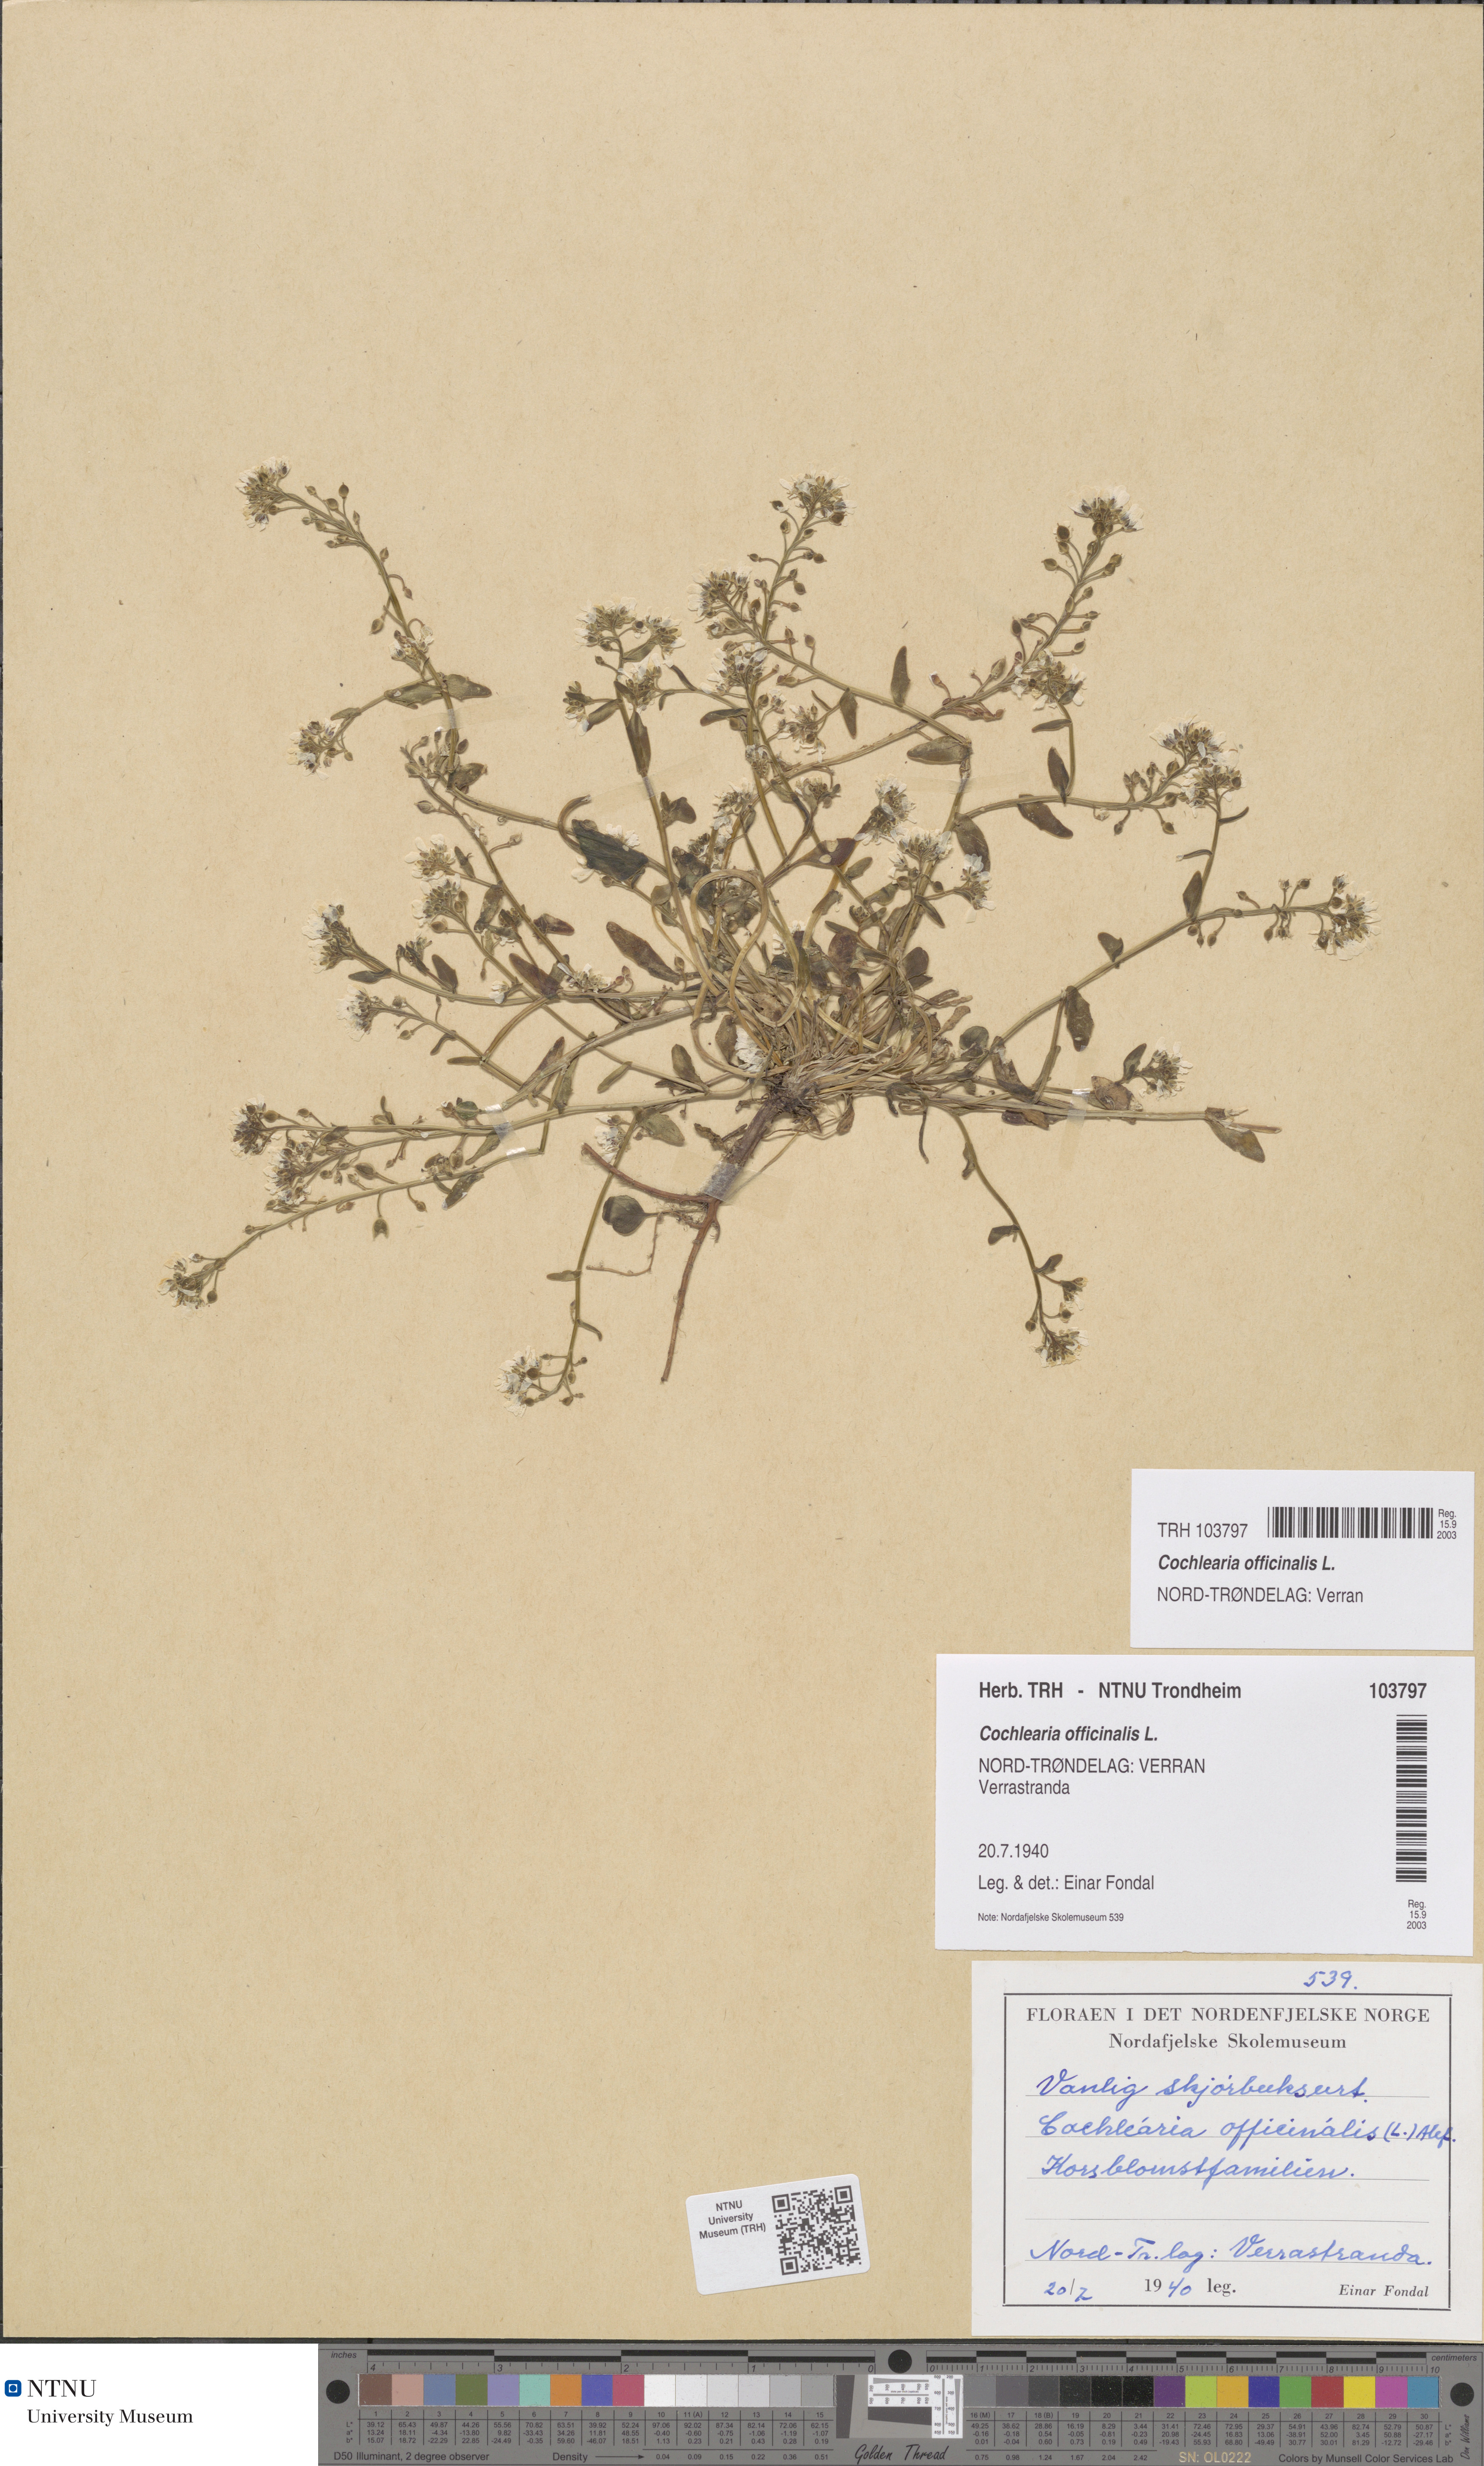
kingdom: Plantae
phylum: Tracheophyta
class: Magnoliopsida
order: Brassicales
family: Brassicaceae
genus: Cochlearia
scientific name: Cochlearia officinalis
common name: Scurvy-grass
